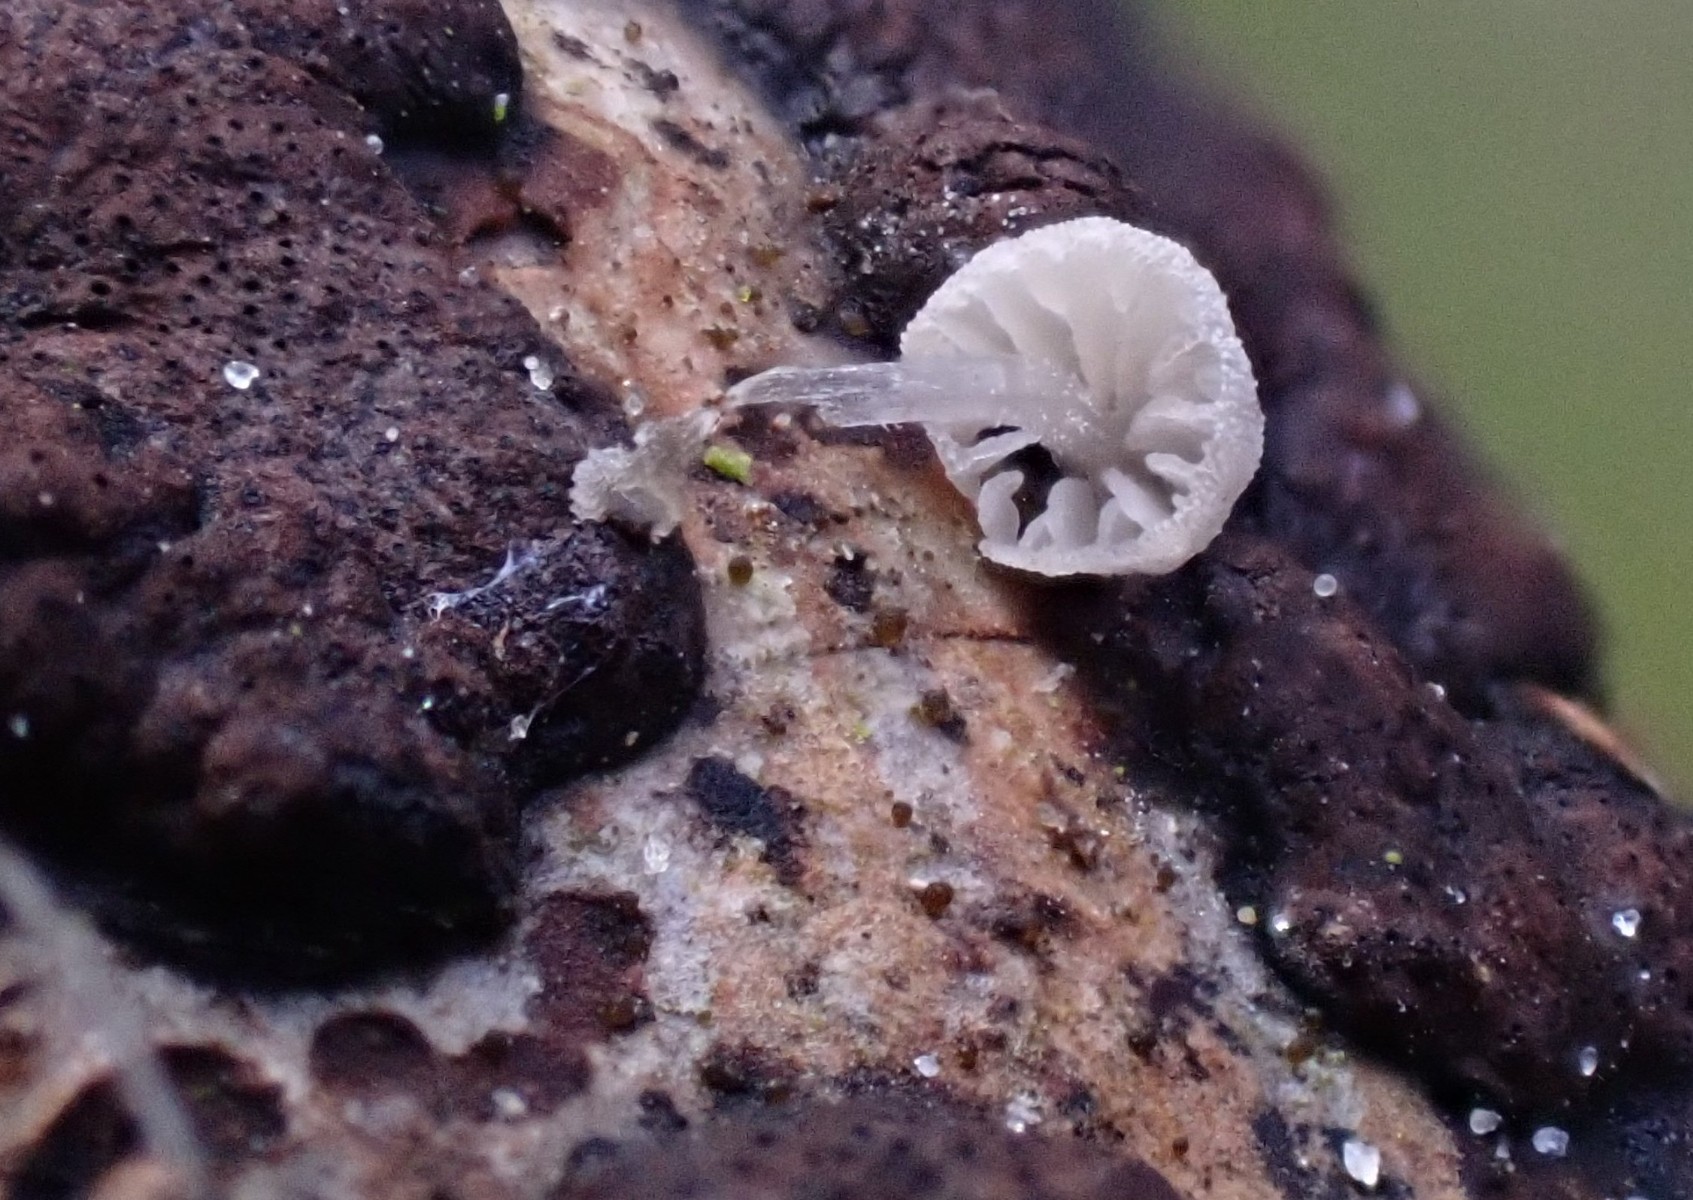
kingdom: Fungi
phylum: Basidiomycota
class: Agaricomycetes
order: Agaricales
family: Mycenaceae
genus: Mycena
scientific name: Mycena tenerrima
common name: pudret huesvamp
